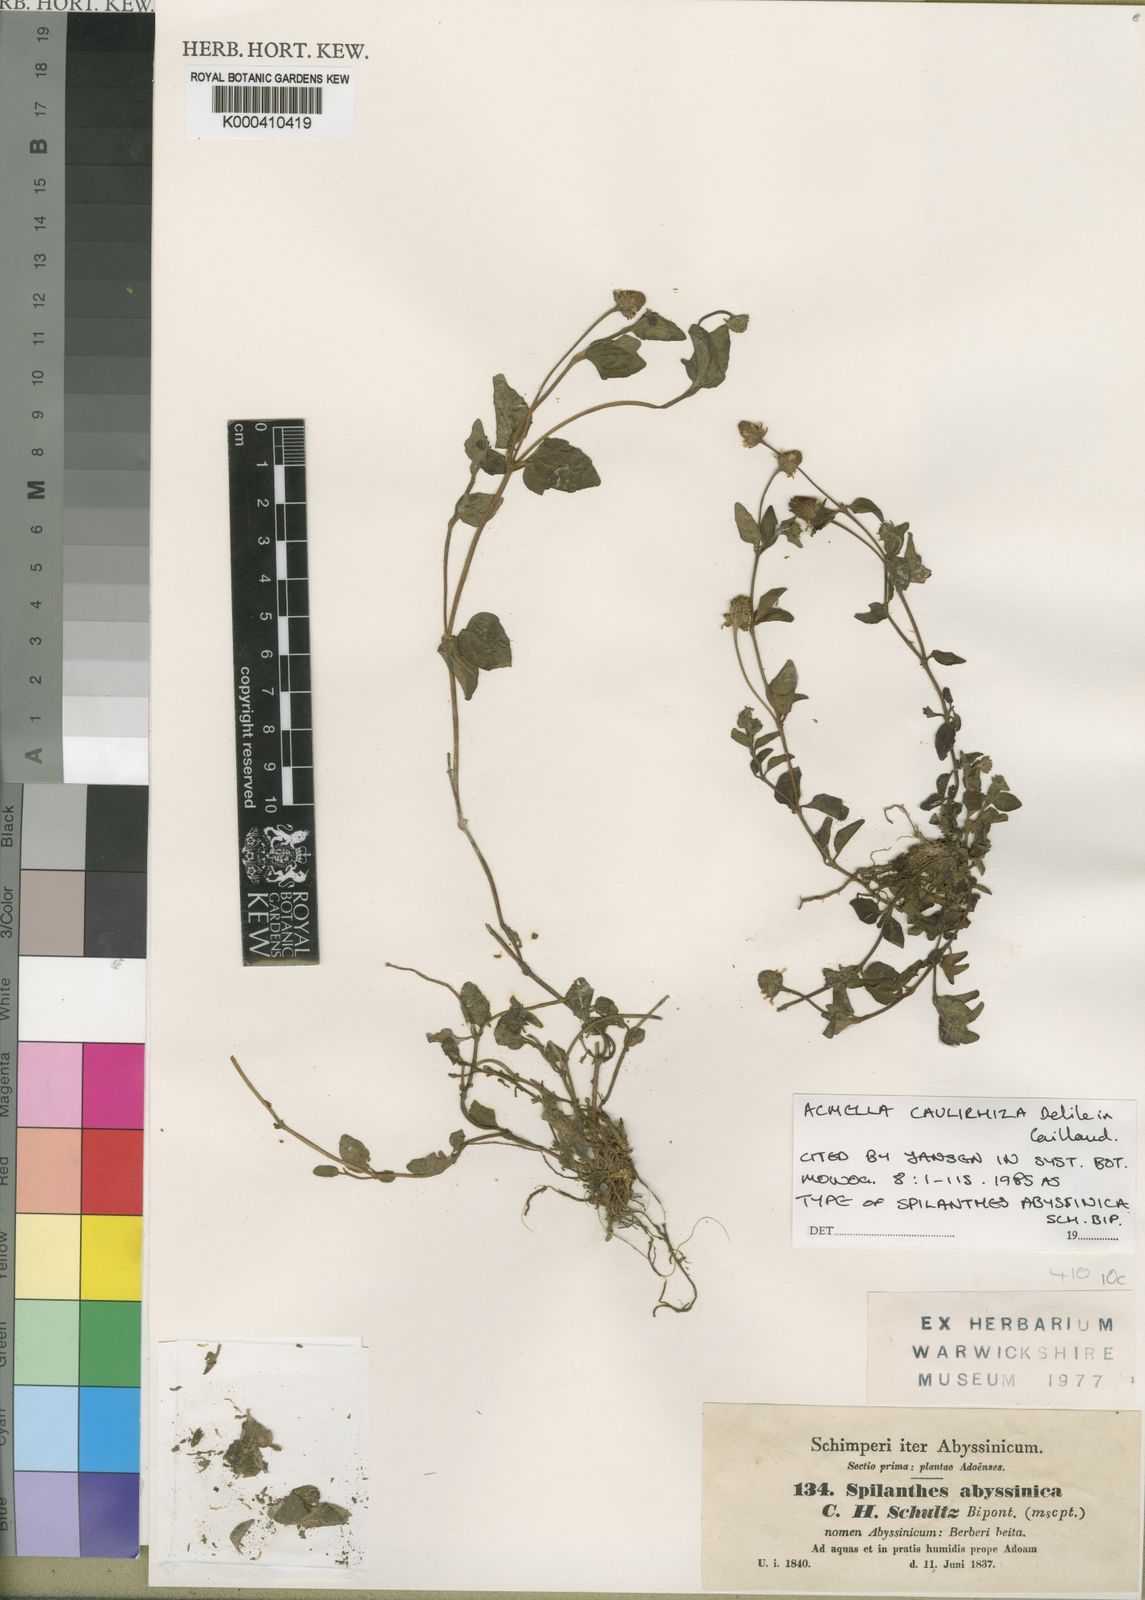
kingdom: Plantae
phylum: Tracheophyta
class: Magnoliopsida
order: Asterales
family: Asteraceae
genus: Acmella
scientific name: Acmella
